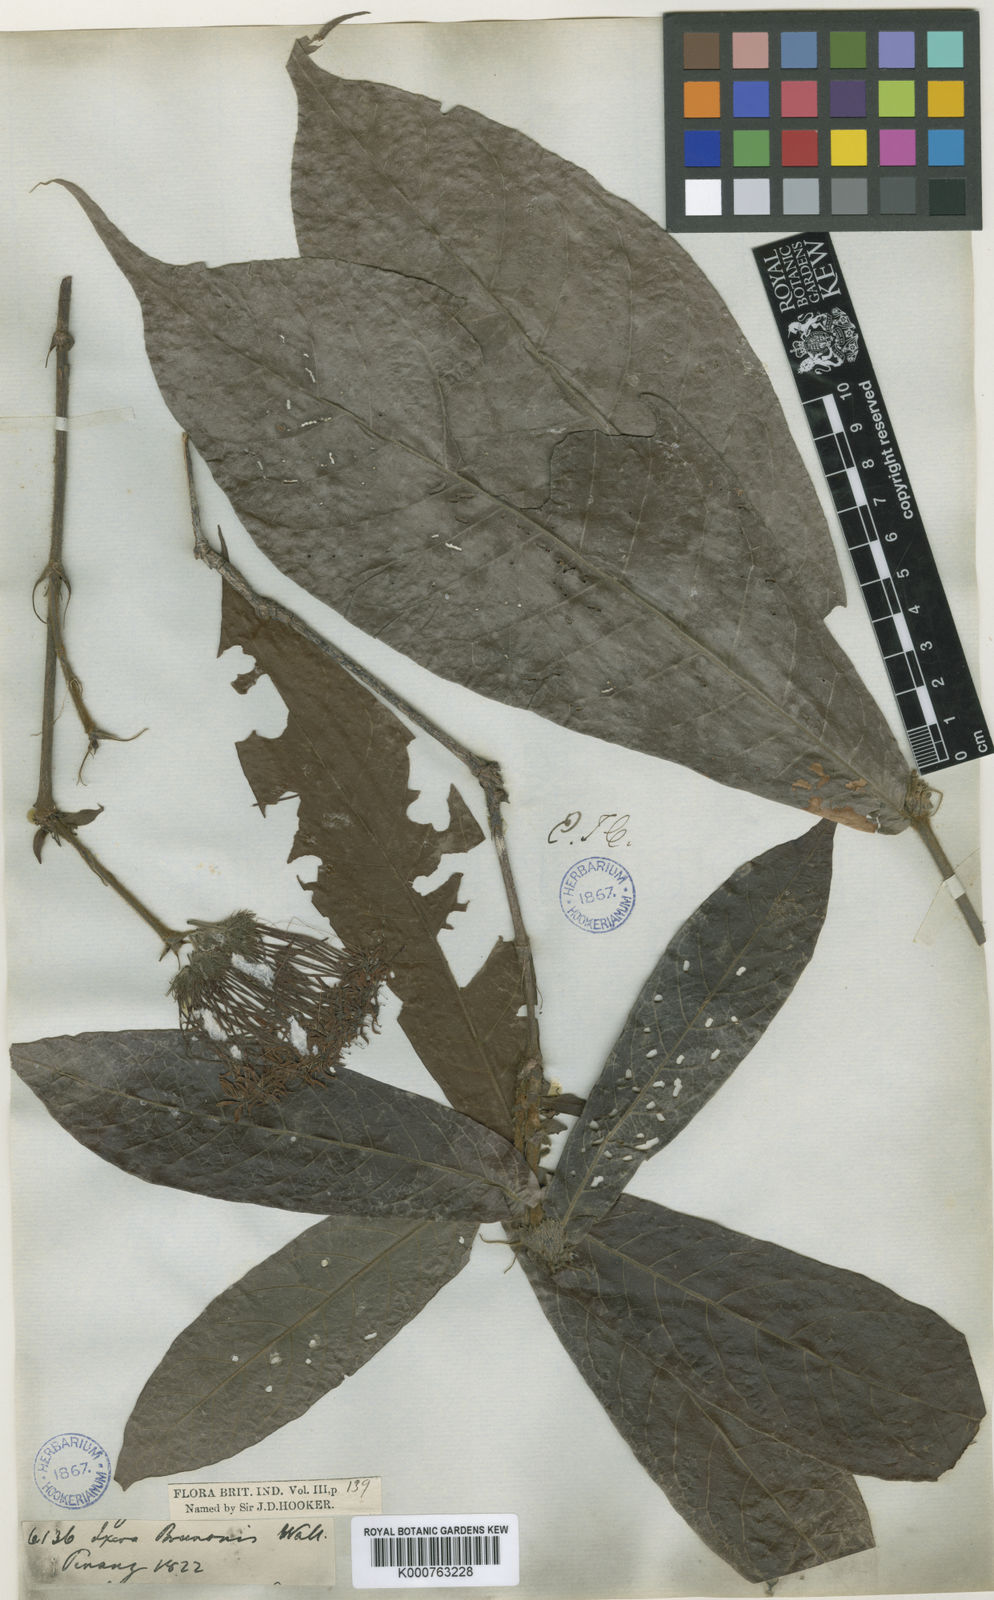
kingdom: Plantae
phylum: Tracheophyta
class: Magnoliopsida
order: Gentianales
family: Rubiaceae
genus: Ixora
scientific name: Ixora
